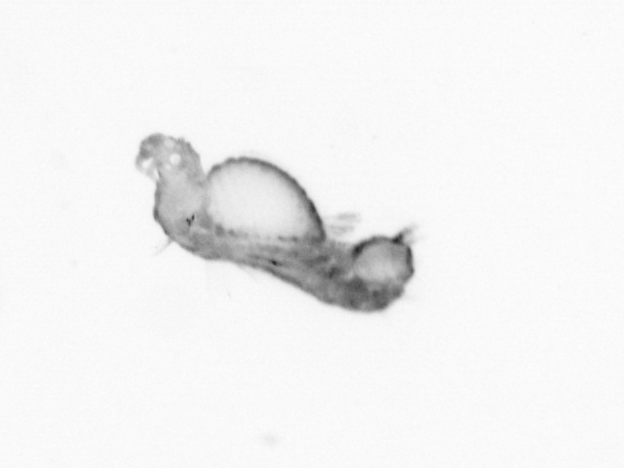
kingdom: Animalia
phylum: Annelida
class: Polychaeta
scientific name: Polychaeta
